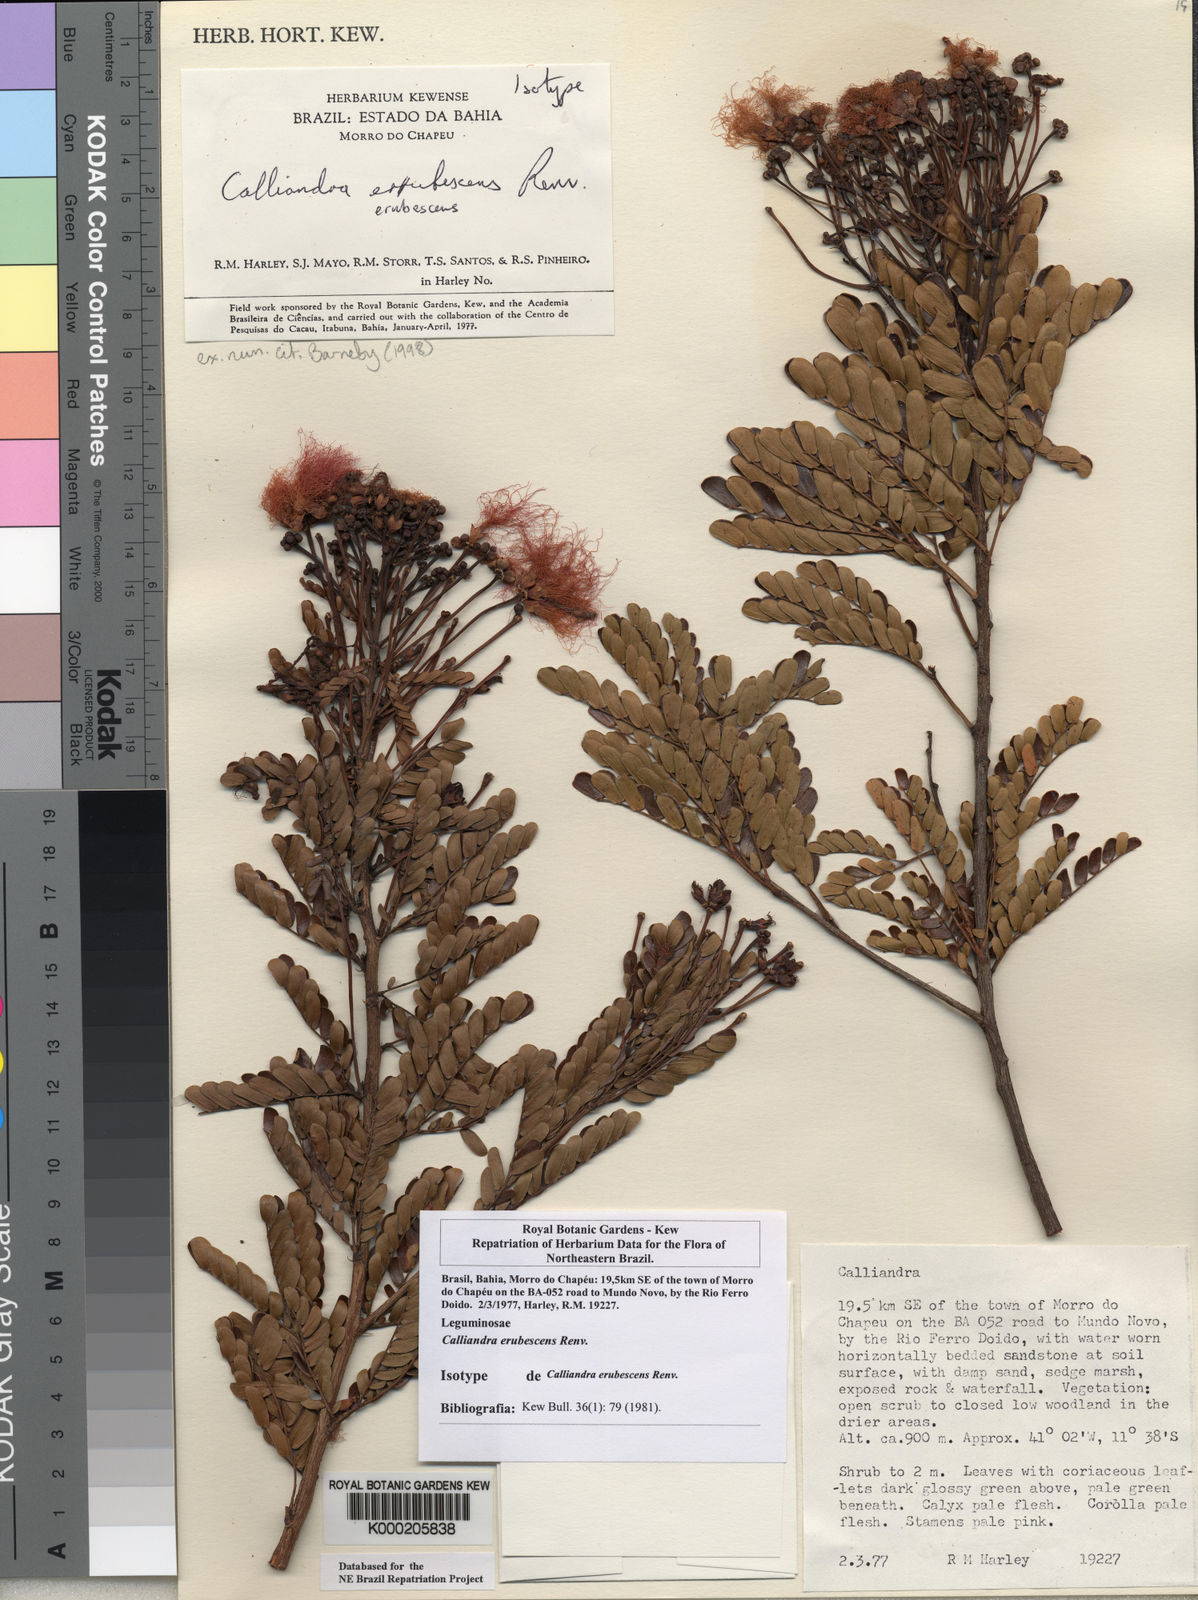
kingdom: Plantae
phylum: Tracheophyta
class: Magnoliopsida
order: Fabales
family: Fabaceae
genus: Calliandra
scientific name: Calliandra erubescens
